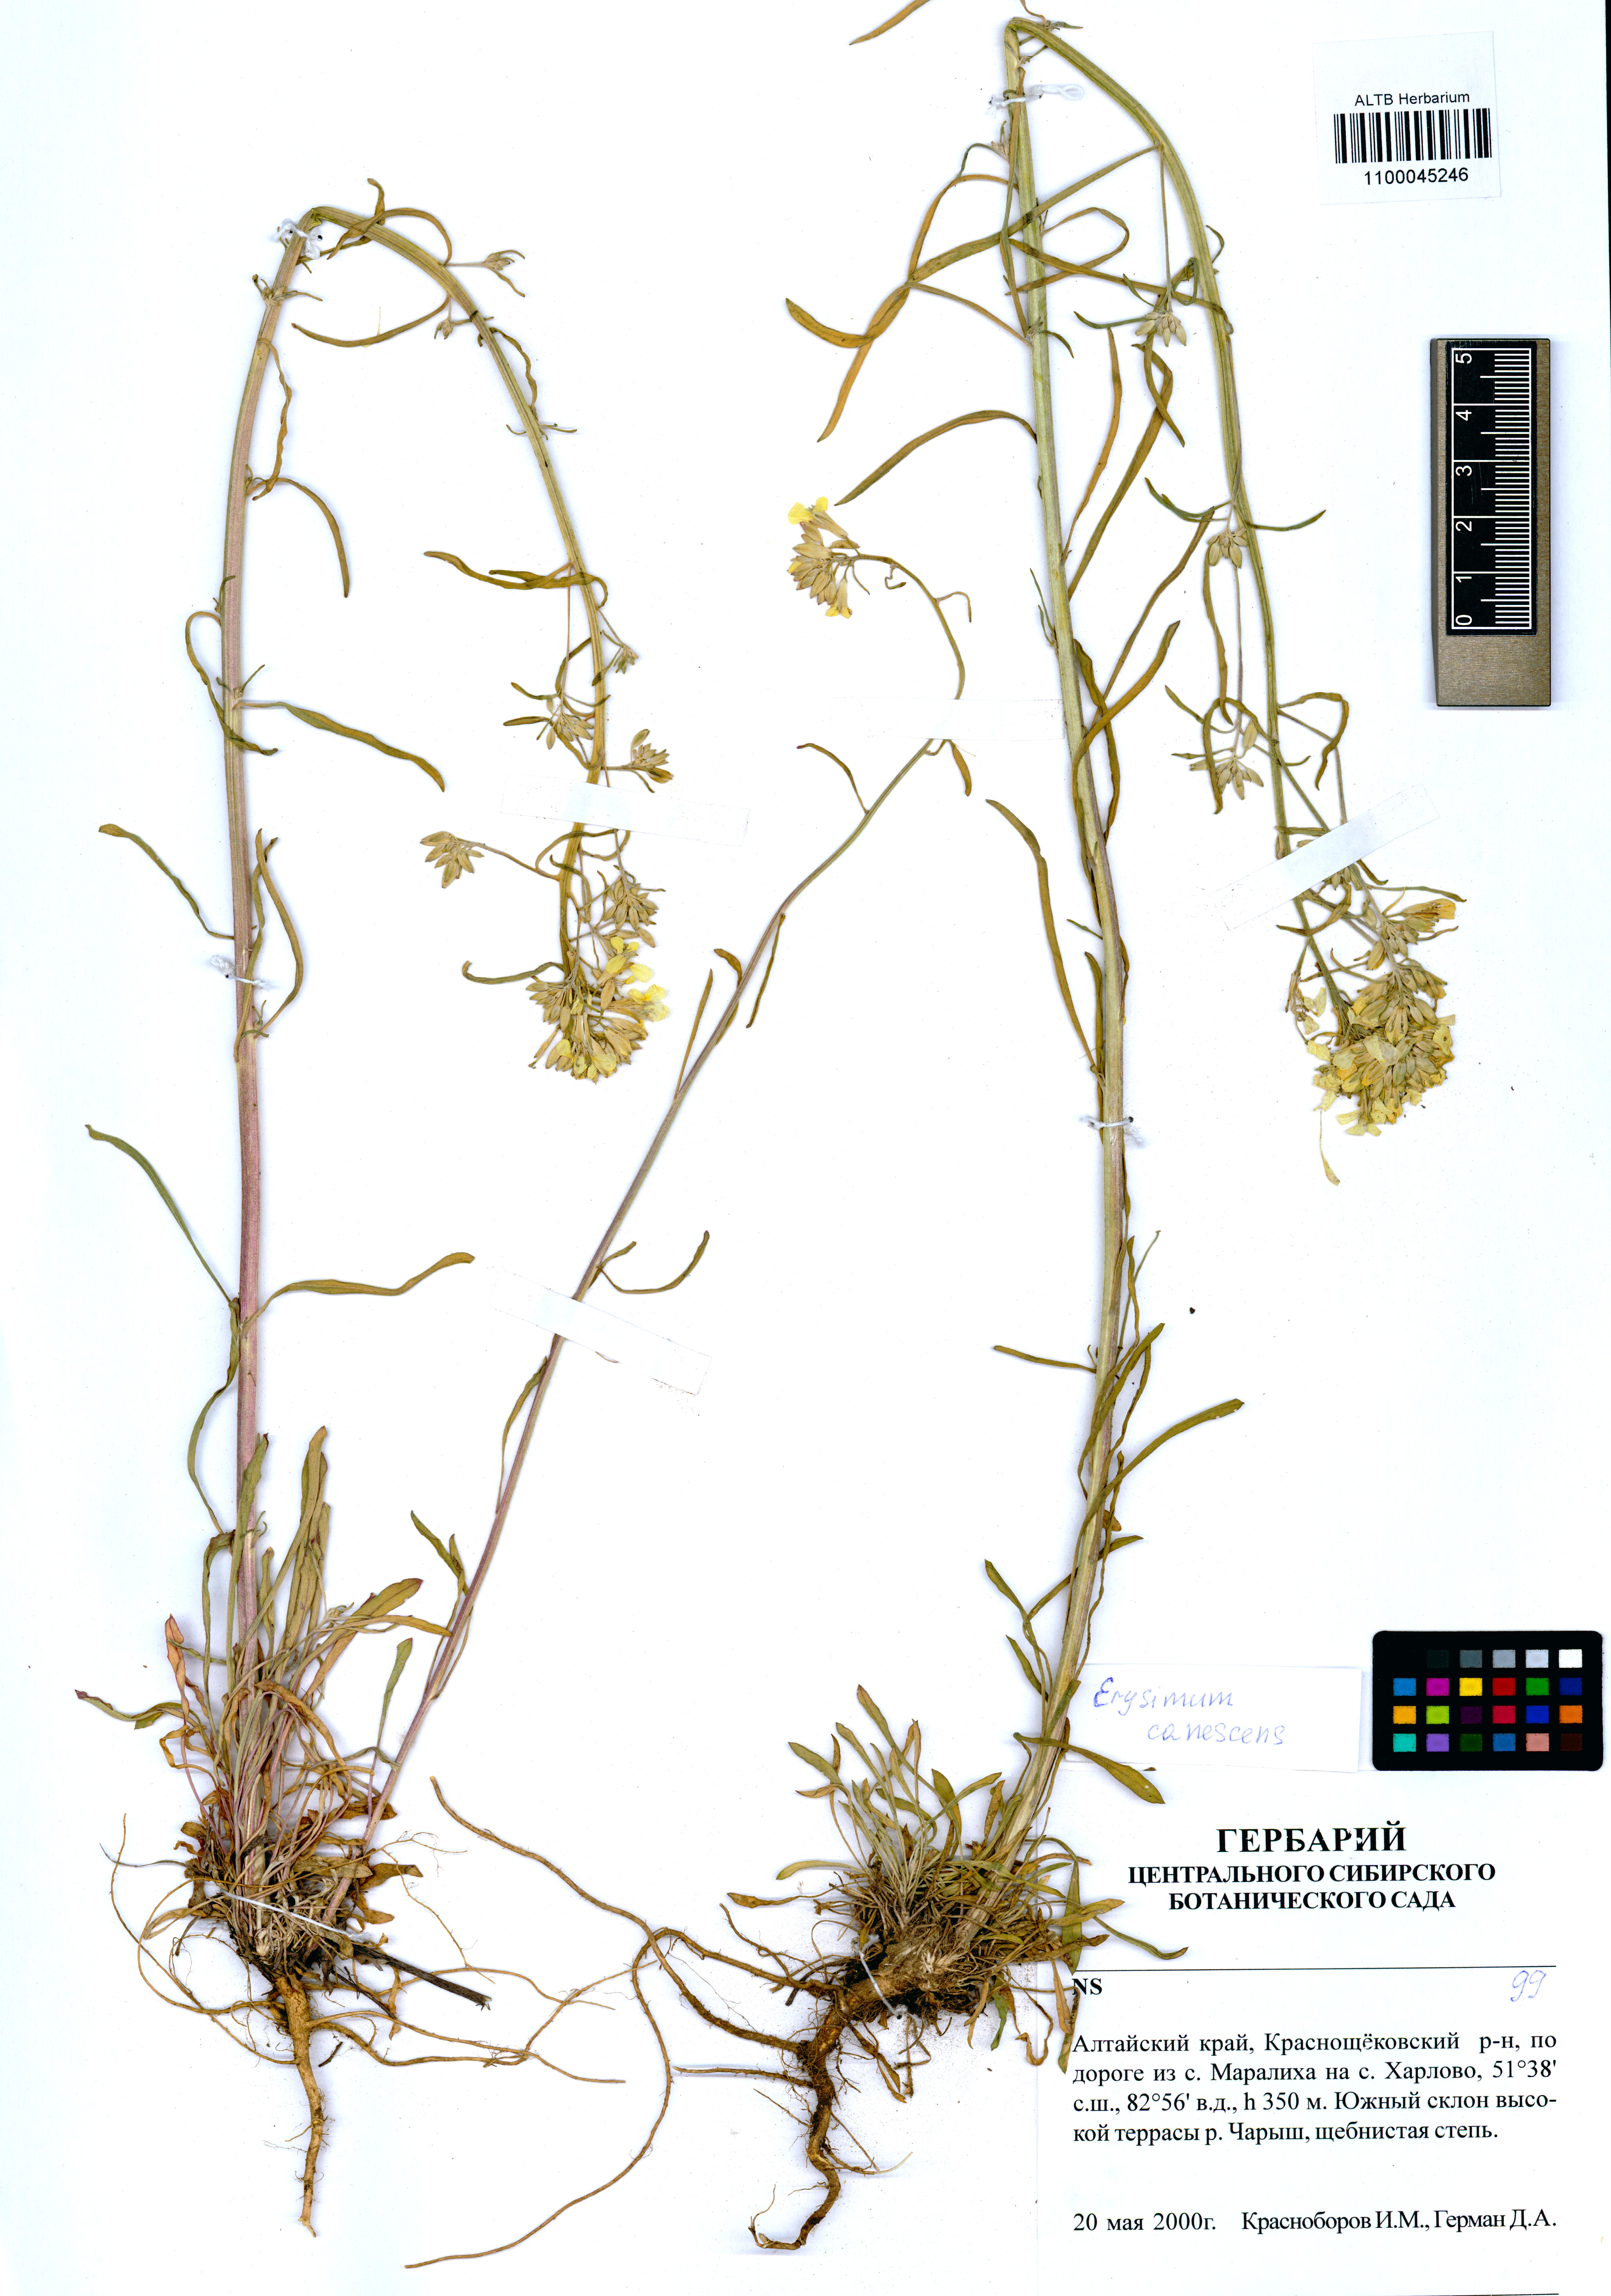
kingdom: Plantae
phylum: Tracheophyta
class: Magnoliopsida
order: Brassicales
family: Brassicaceae
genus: Erysimum
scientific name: Erysimum canescens
